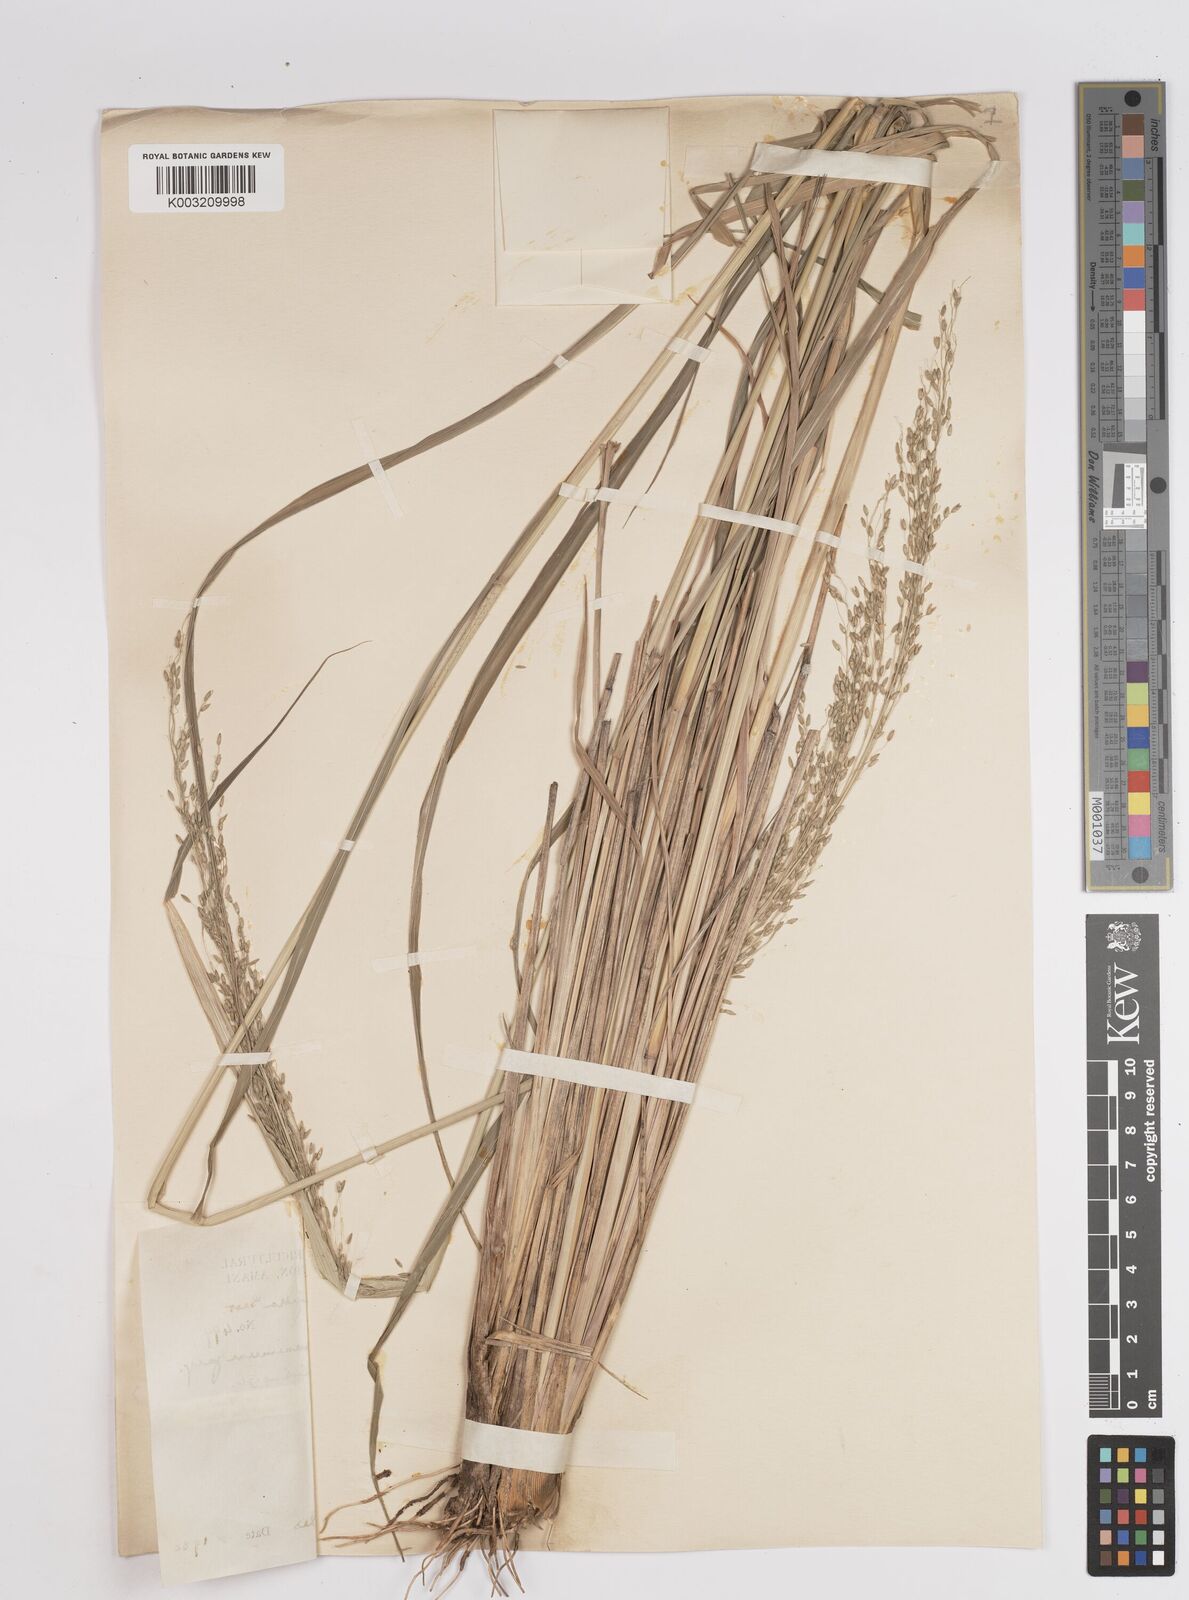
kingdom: Plantae
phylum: Tracheophyta
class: Liliopsida
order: Poales
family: Poaceae
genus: Megathyrsus
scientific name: Megathyrsus maximus
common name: Guineagrass
